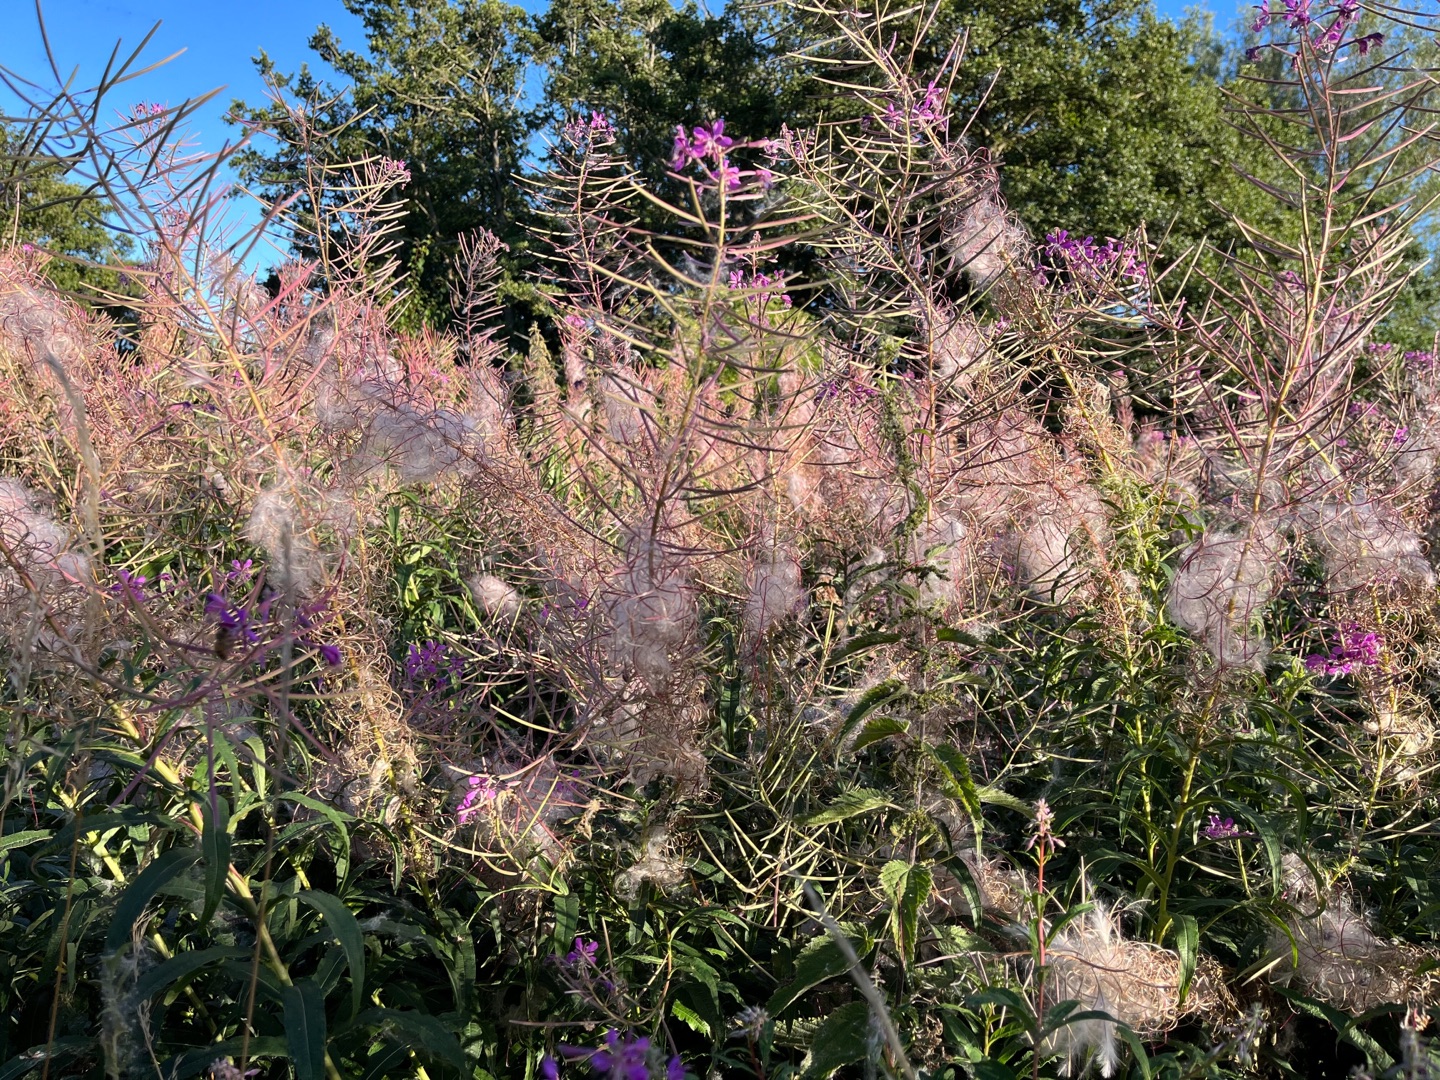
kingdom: Plantae
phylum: Tracheophyta
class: Magnoliopsida
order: Myrtales
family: Onagraceae
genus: Chamaenerion
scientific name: Chamaenerion angustifolium
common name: Gederams
